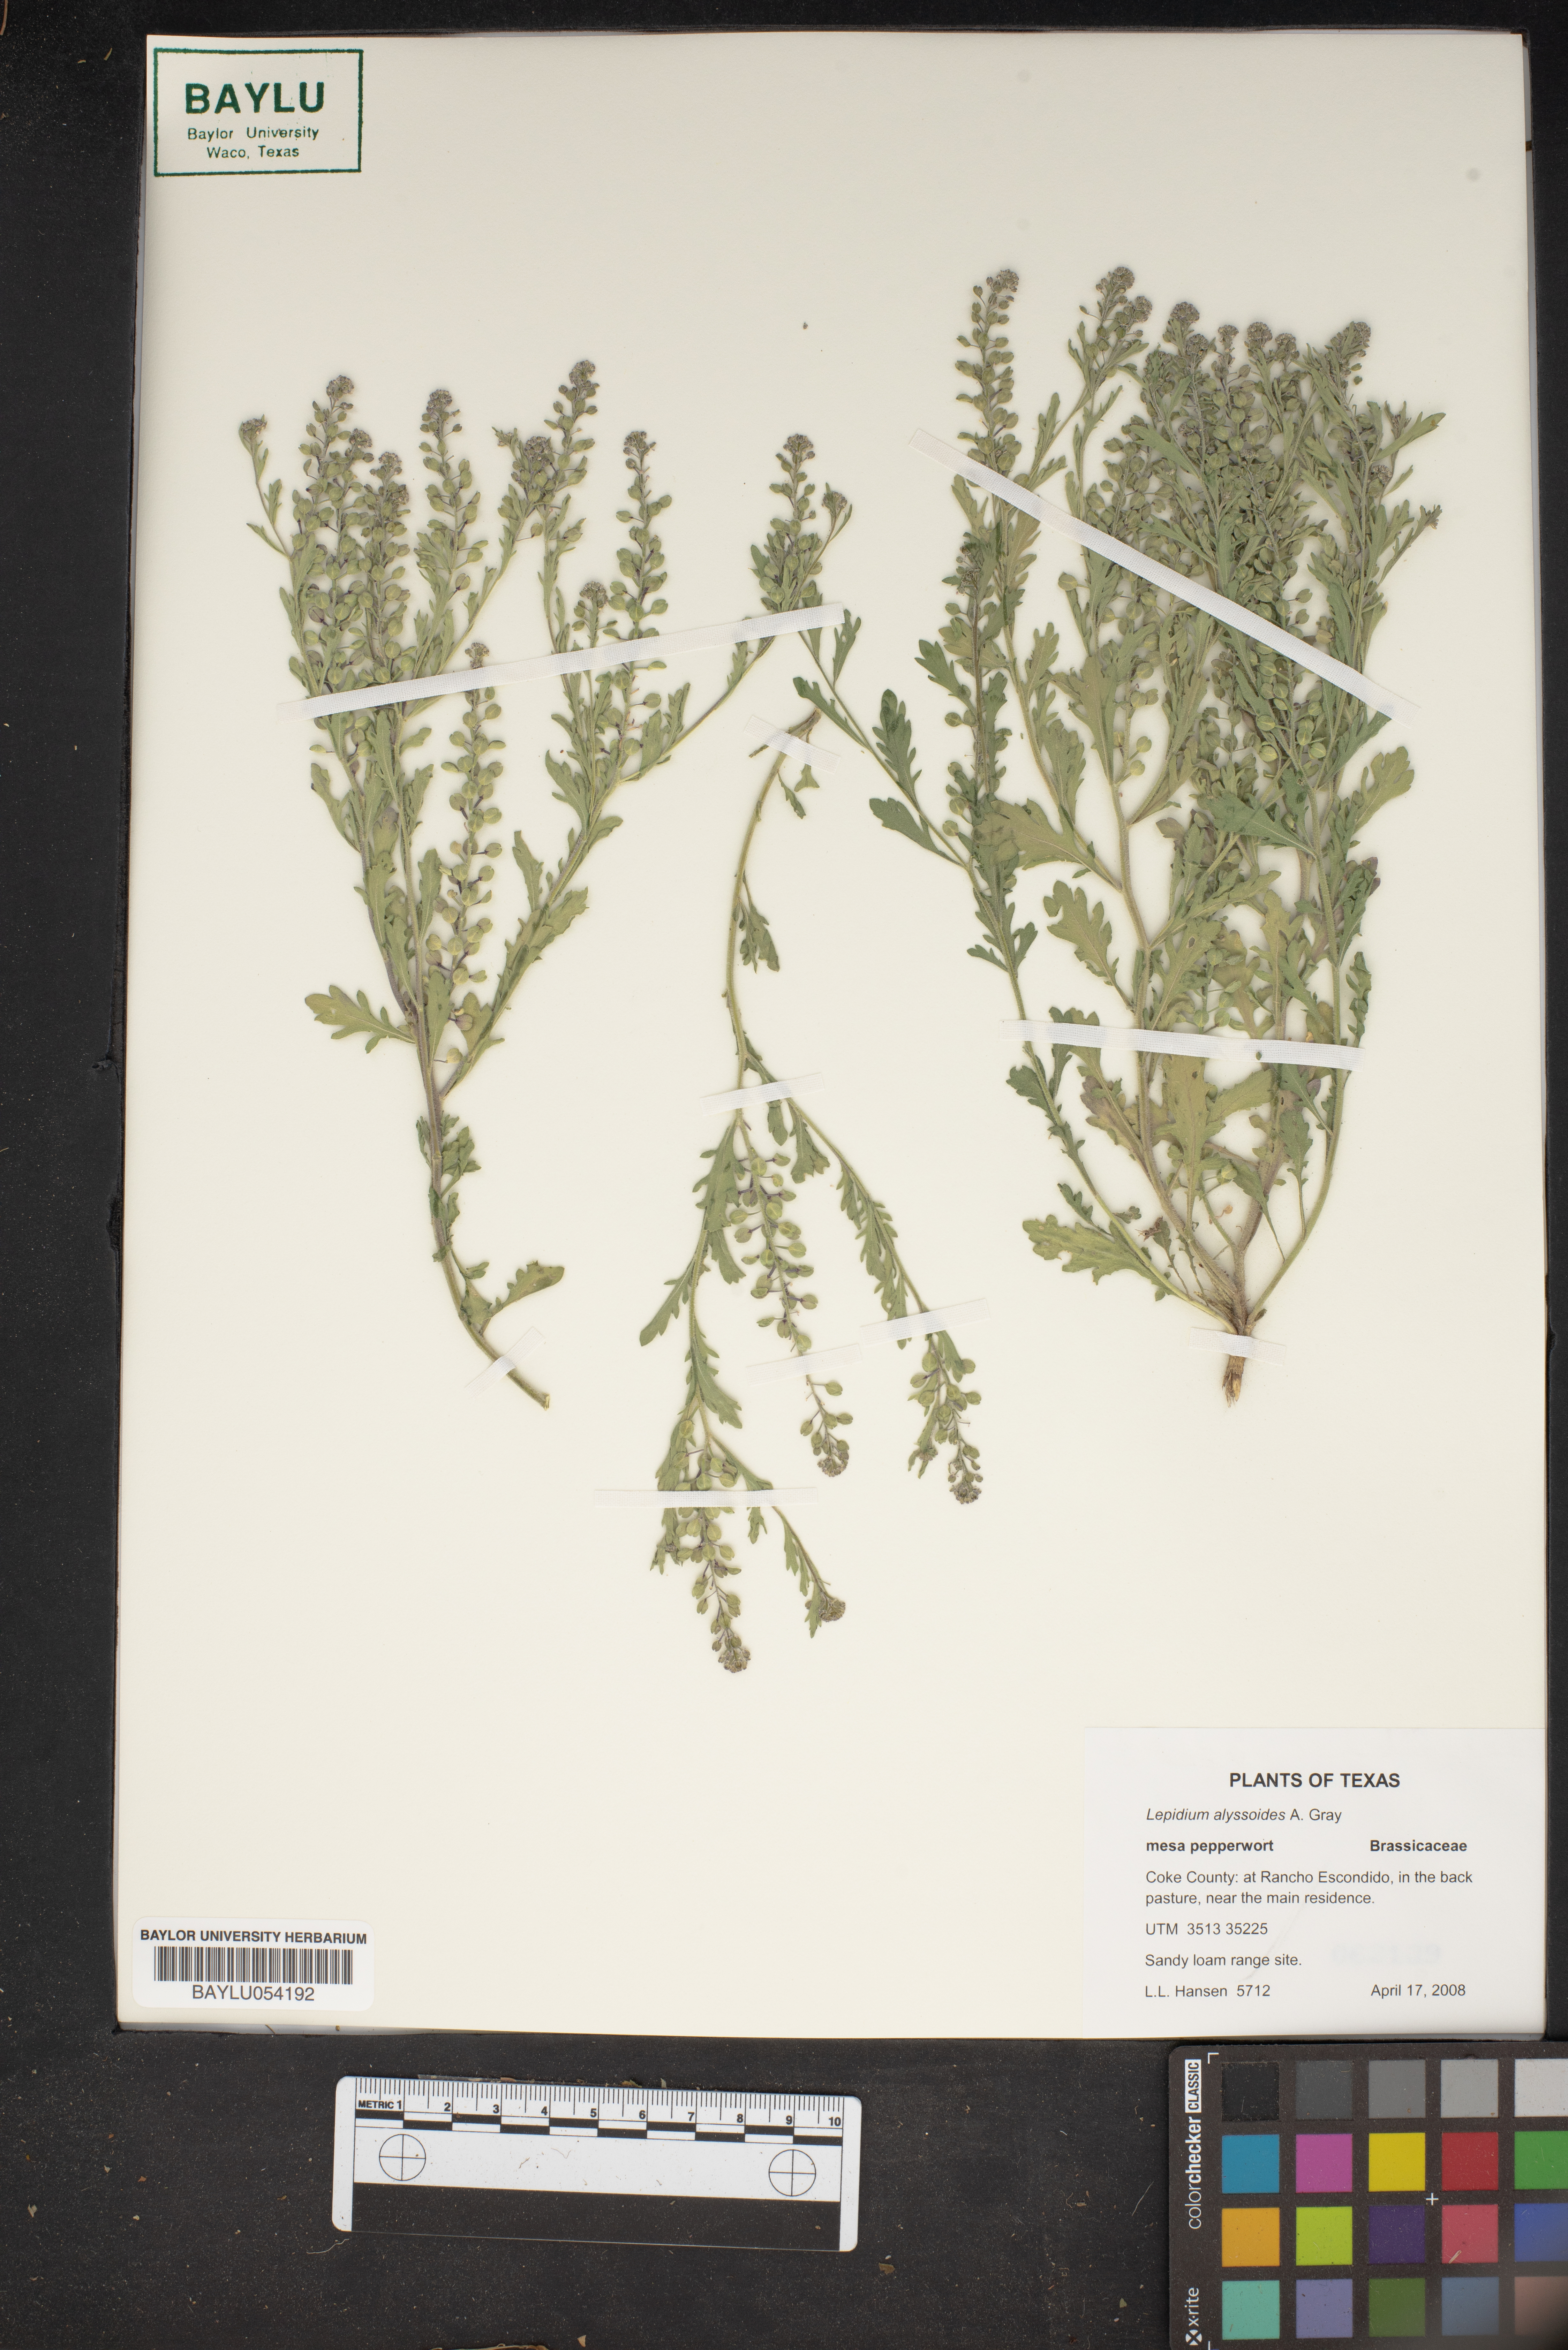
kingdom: Plantae
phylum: Tracheophyta
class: Magnoliopsida
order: Brassicales
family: Brassicaceae
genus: Lepidium
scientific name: Lepidium alyssoides
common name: Mesa pepperweed
